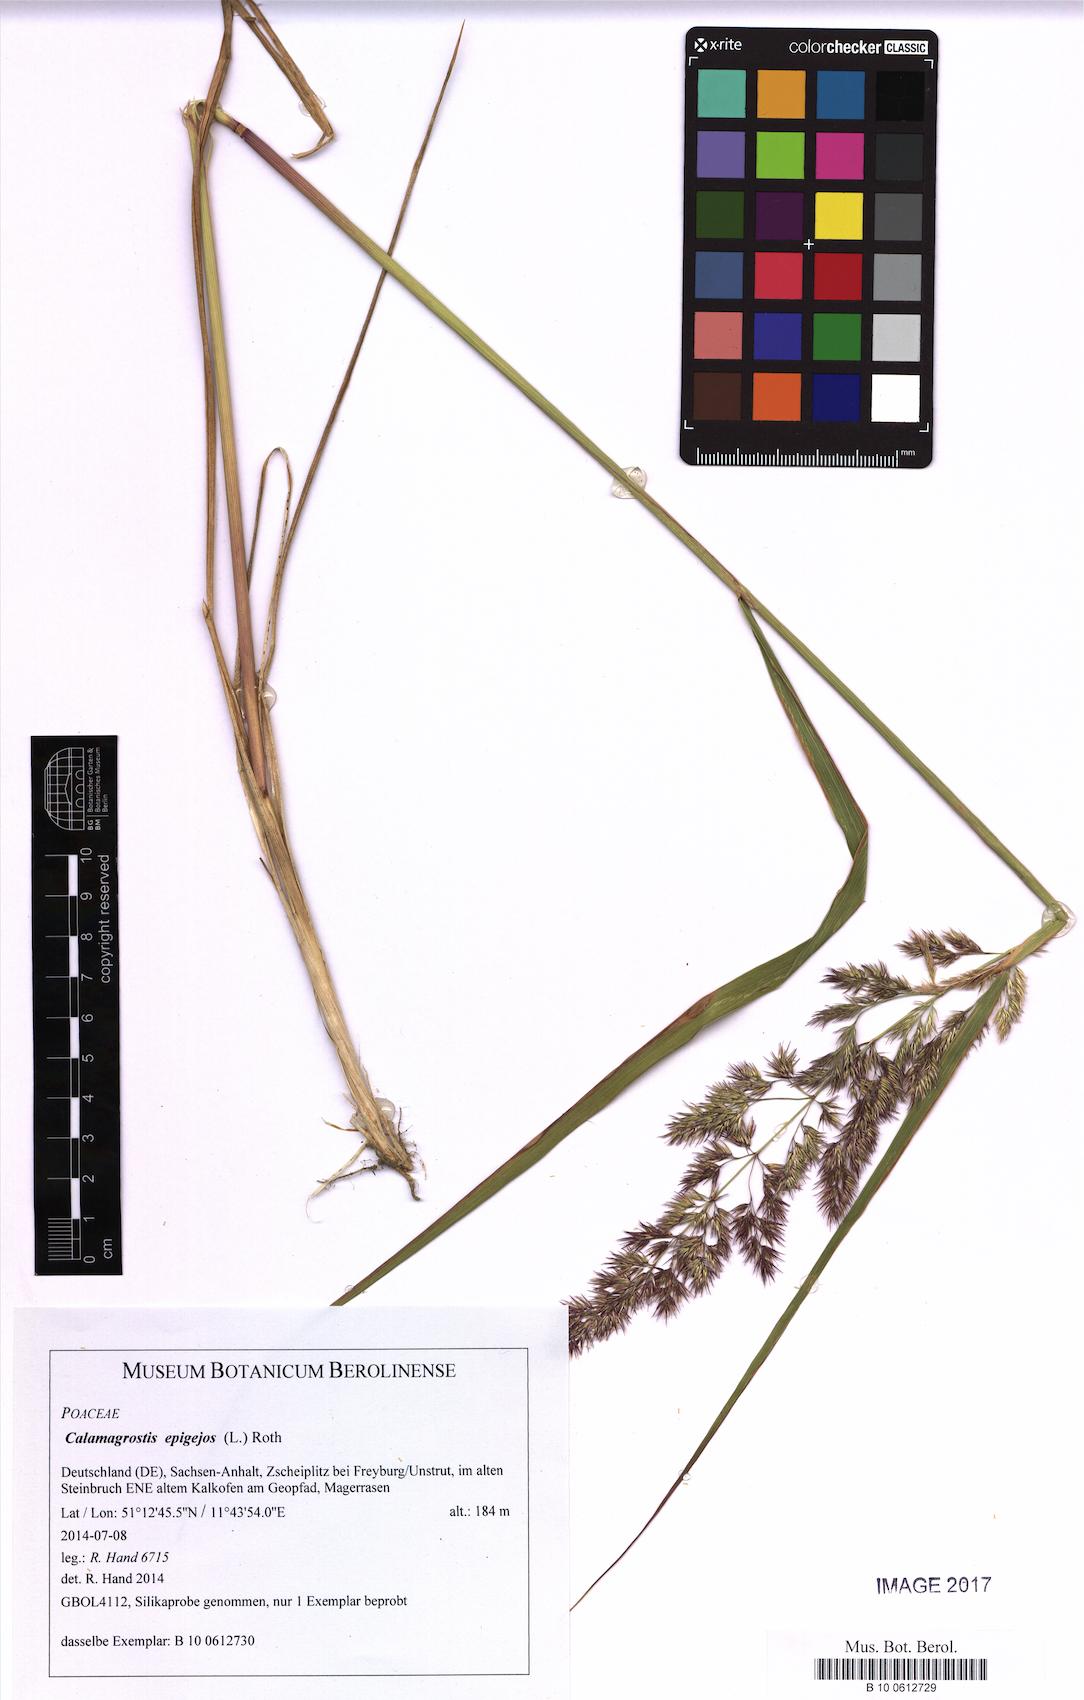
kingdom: Plantae
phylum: Tracheophyta
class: Liliopsida
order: Poales
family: Poaceae
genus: Calamagrostis
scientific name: Calamagrostis epigejos
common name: Wood small-reed
